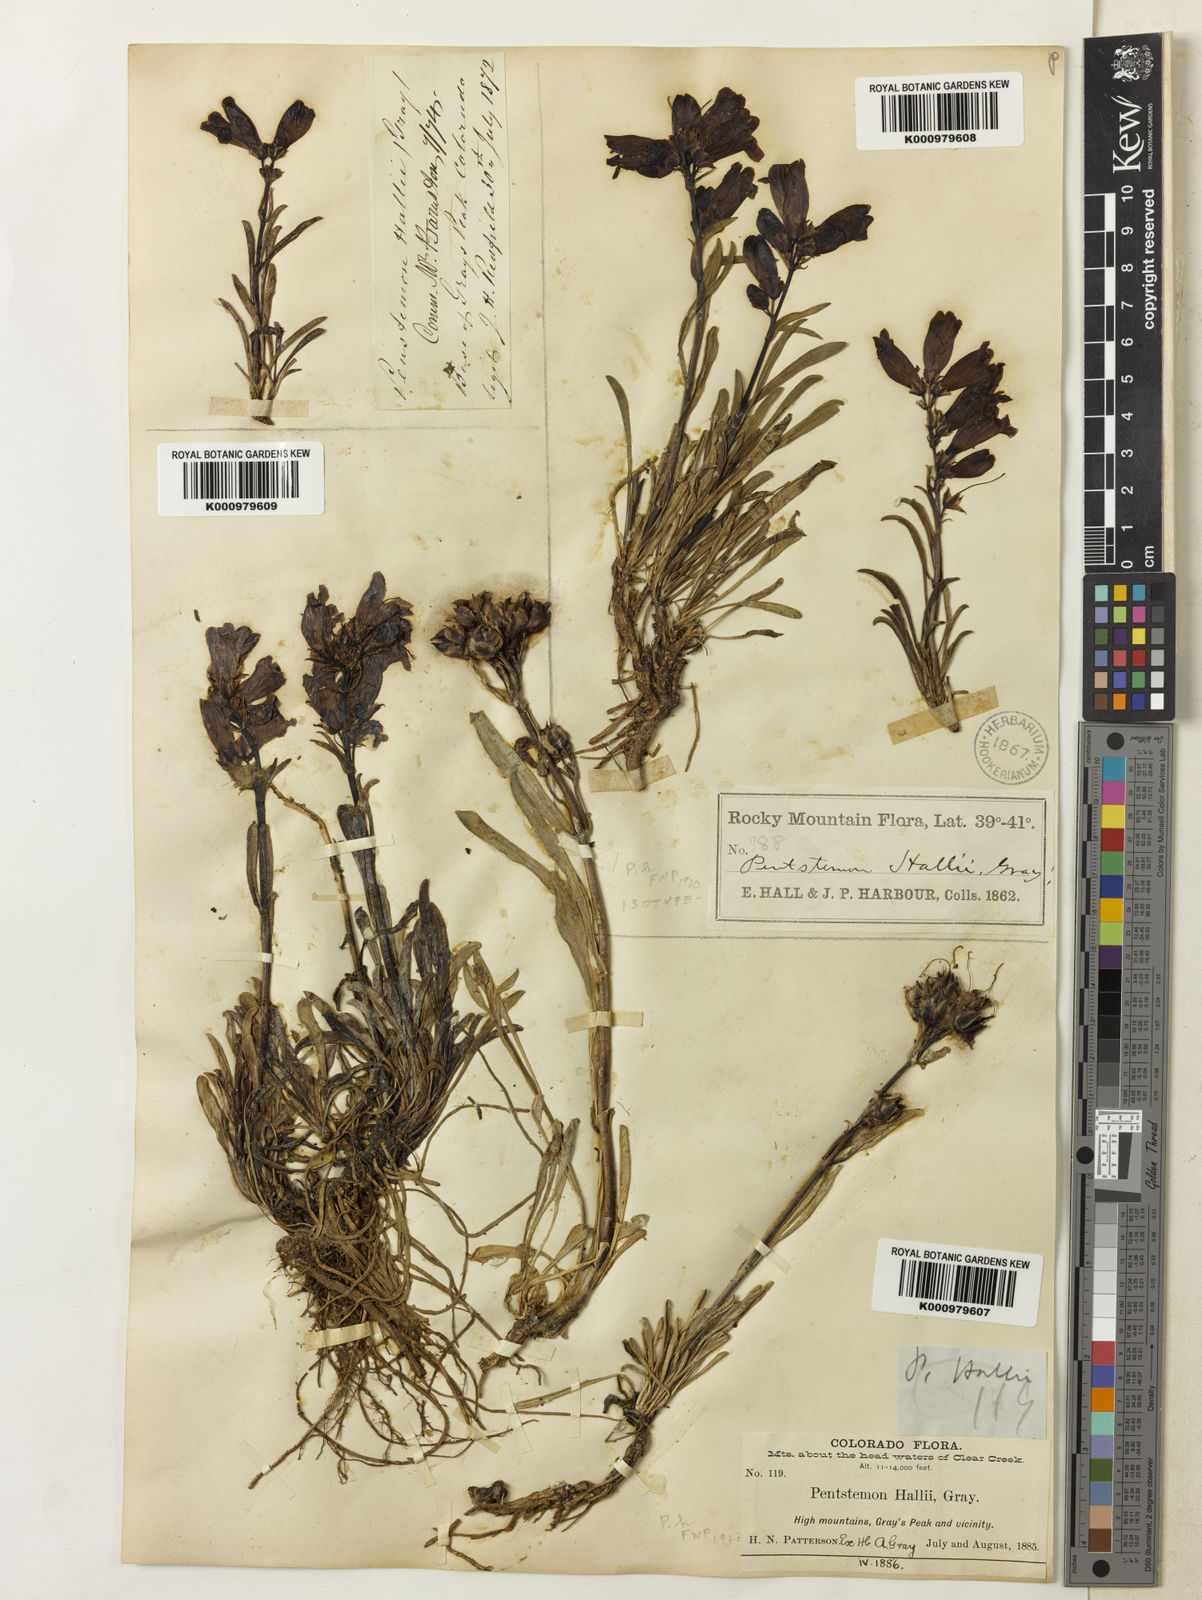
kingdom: Plantae
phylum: Tracheophyta
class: Magnoliopsida
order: Lamiales
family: Plantaginaceae
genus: Penstemon
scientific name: Penstemon hallii
